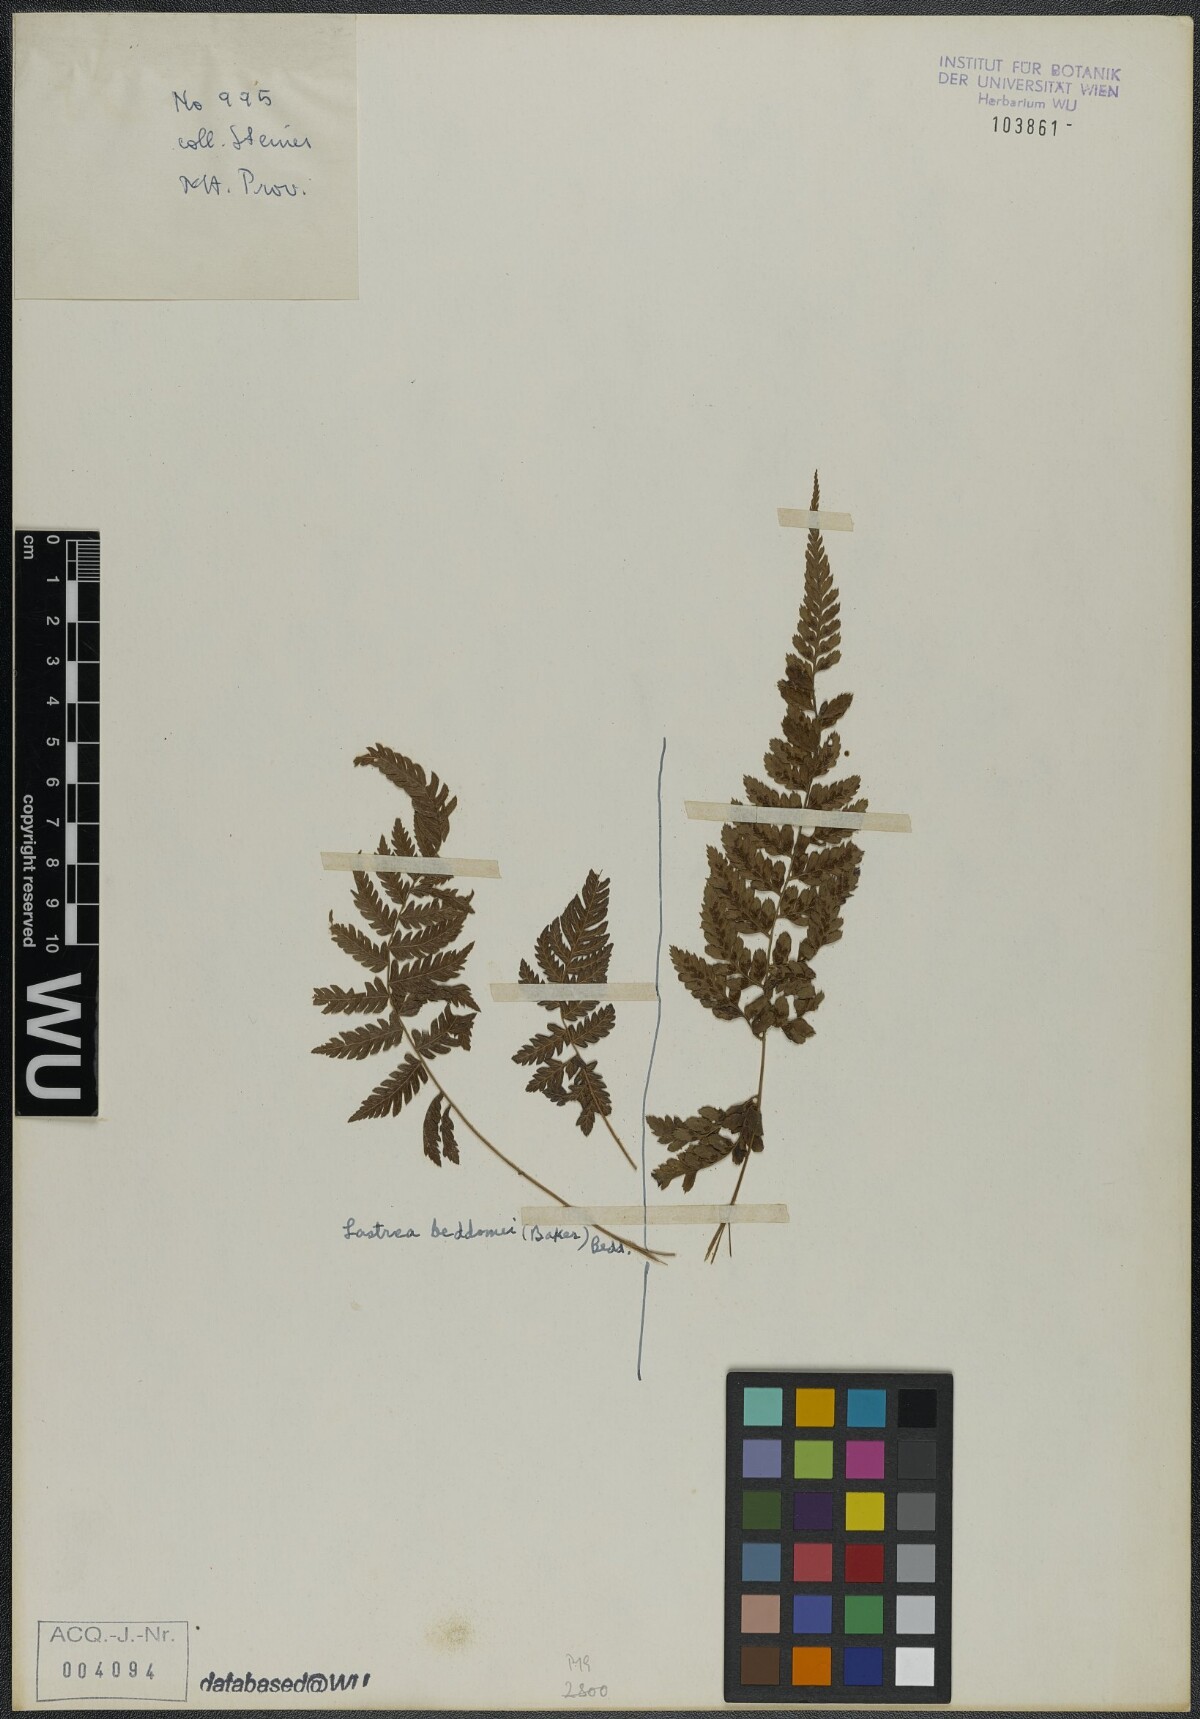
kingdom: Plantae
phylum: Tracheophyta
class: Polypodiopsida
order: Polypodiales
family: Thelypteridaceae
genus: Amauropelta
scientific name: Amauropelta beddomei
